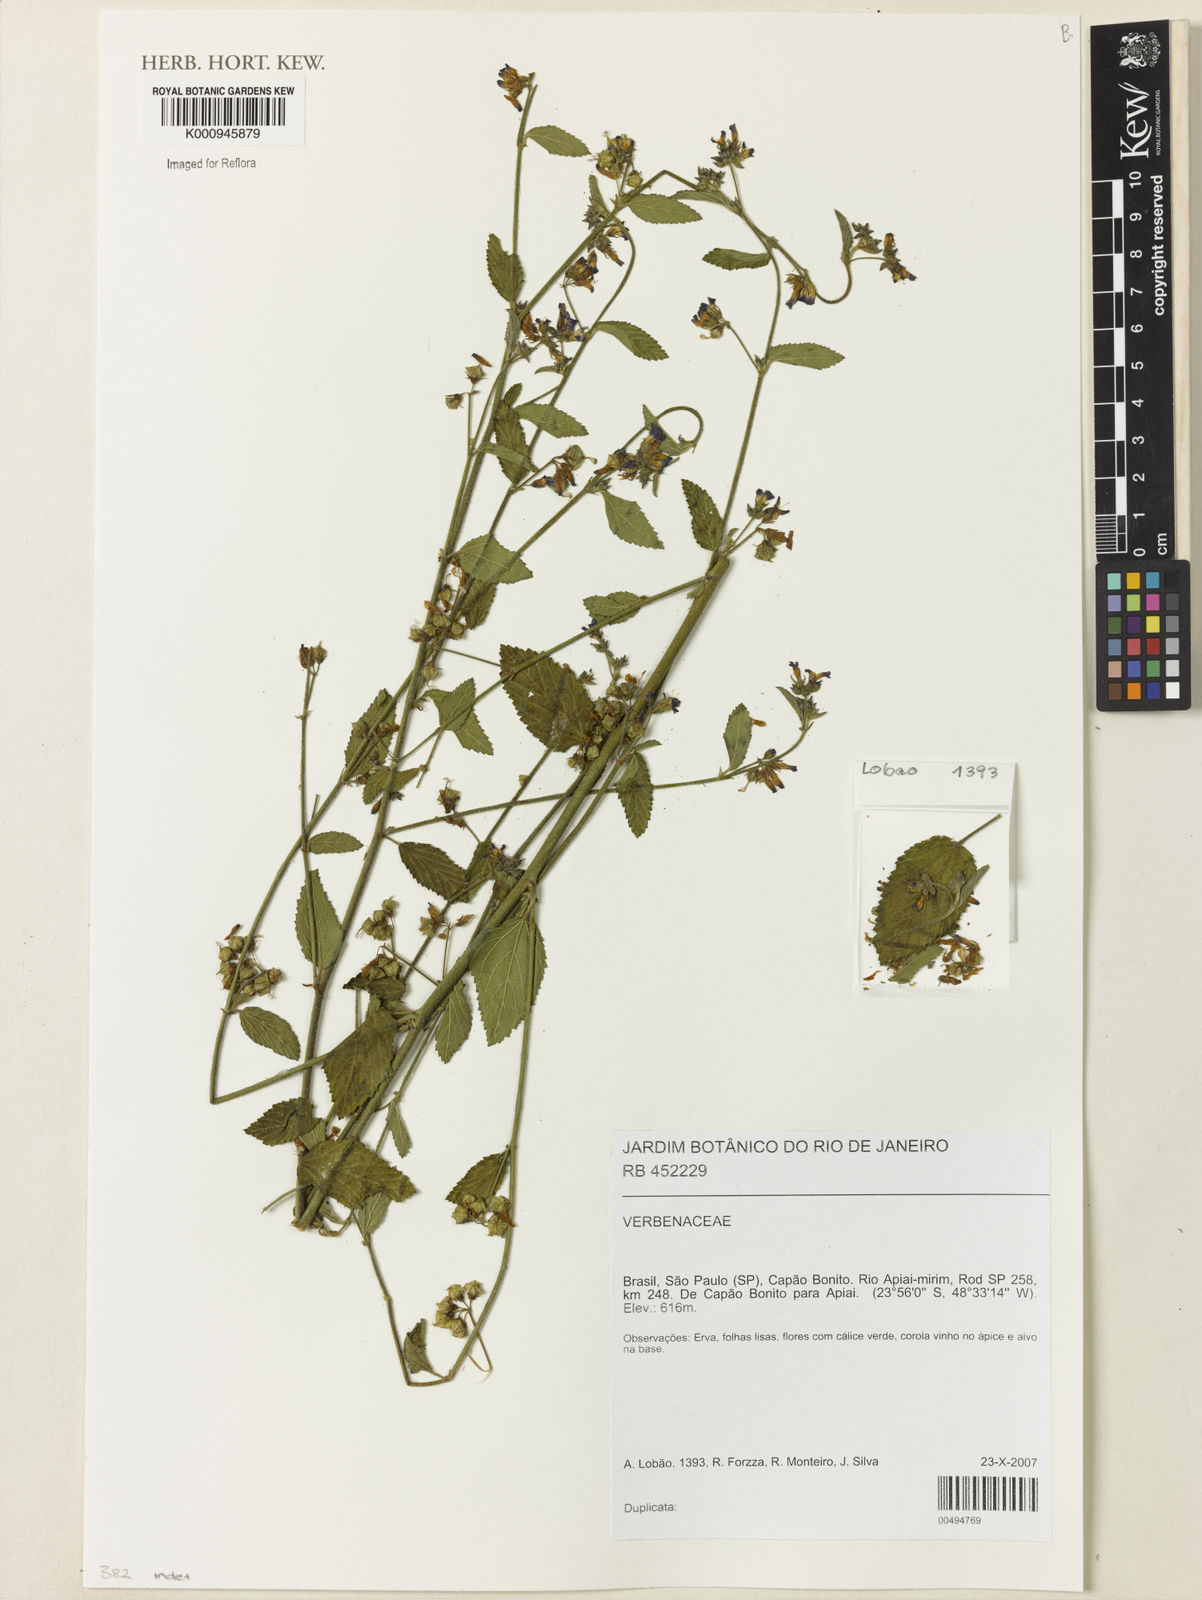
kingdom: Plantae
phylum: Tracheophyta
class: Magnoliopsida
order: Lamiales
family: Verbenaceae
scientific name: Verbenaceae
